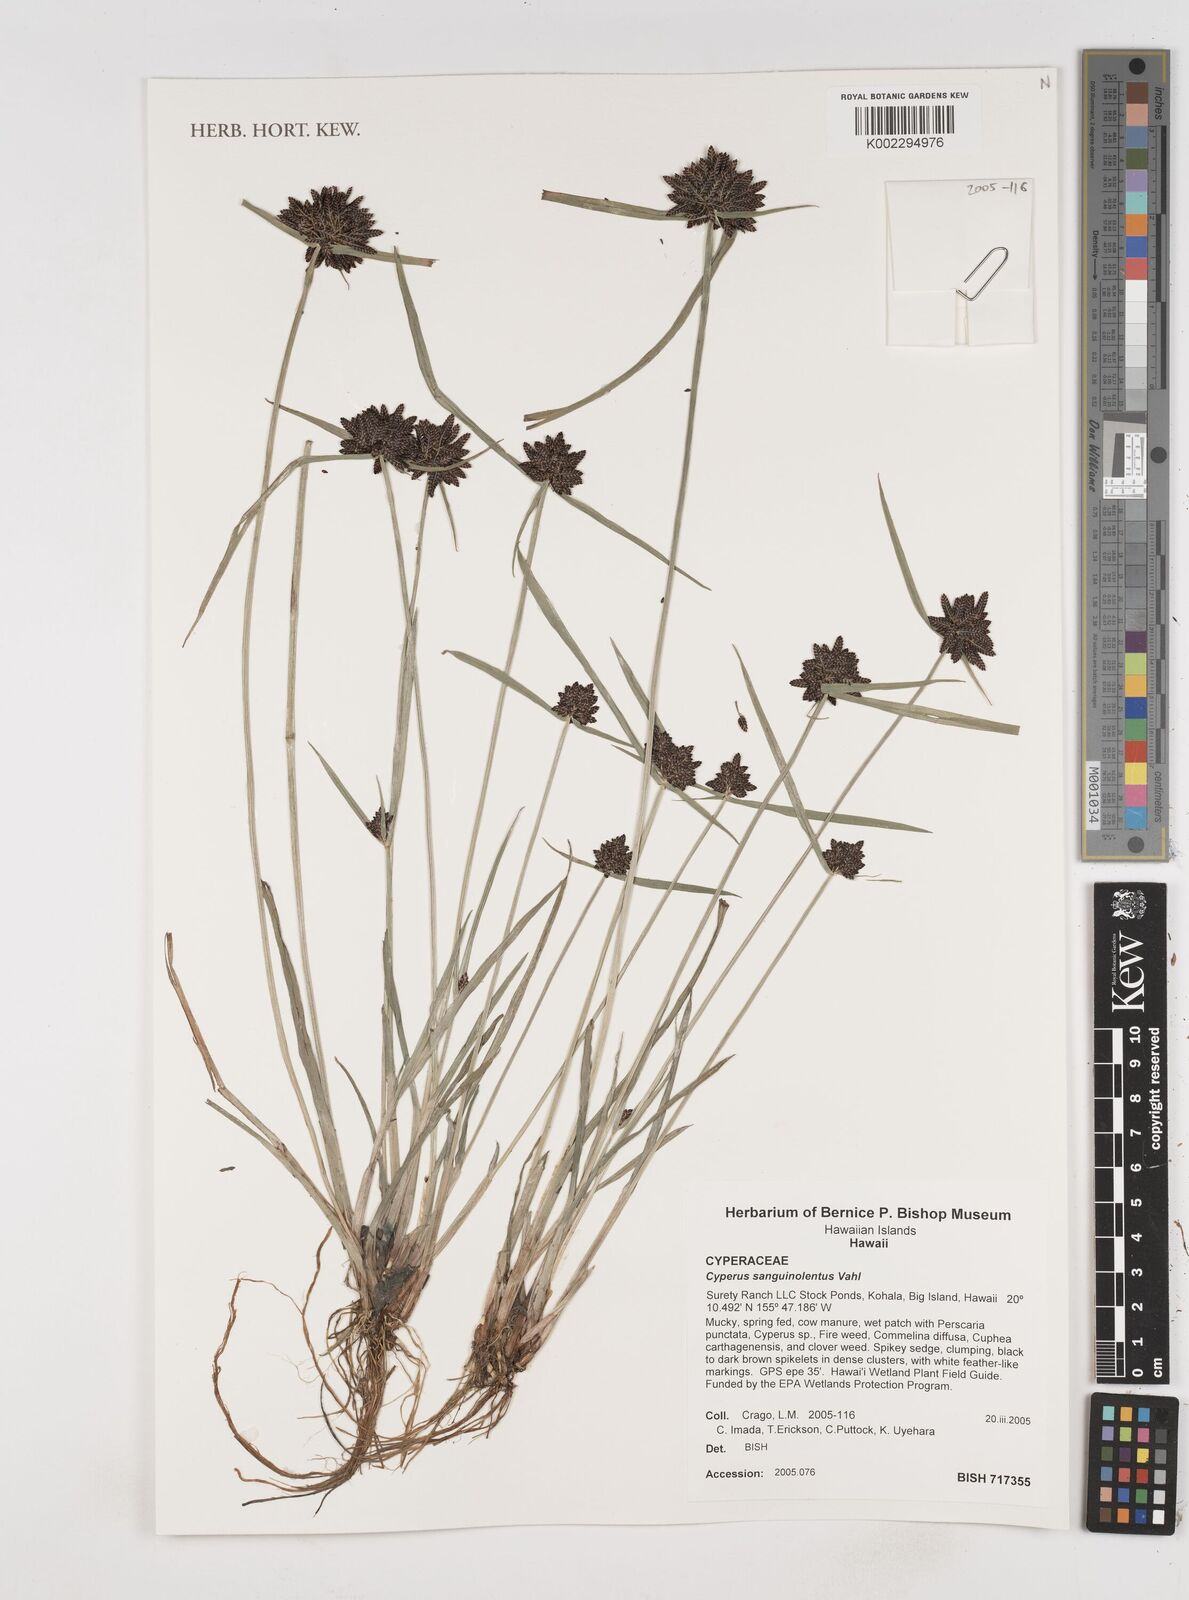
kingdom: Plantae
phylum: Tracheophyta
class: Liliopsida
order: Poales
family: Cyperaceae
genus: Cyperus
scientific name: Cyperus sanguinolentus
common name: Purpleglume flatsedge
